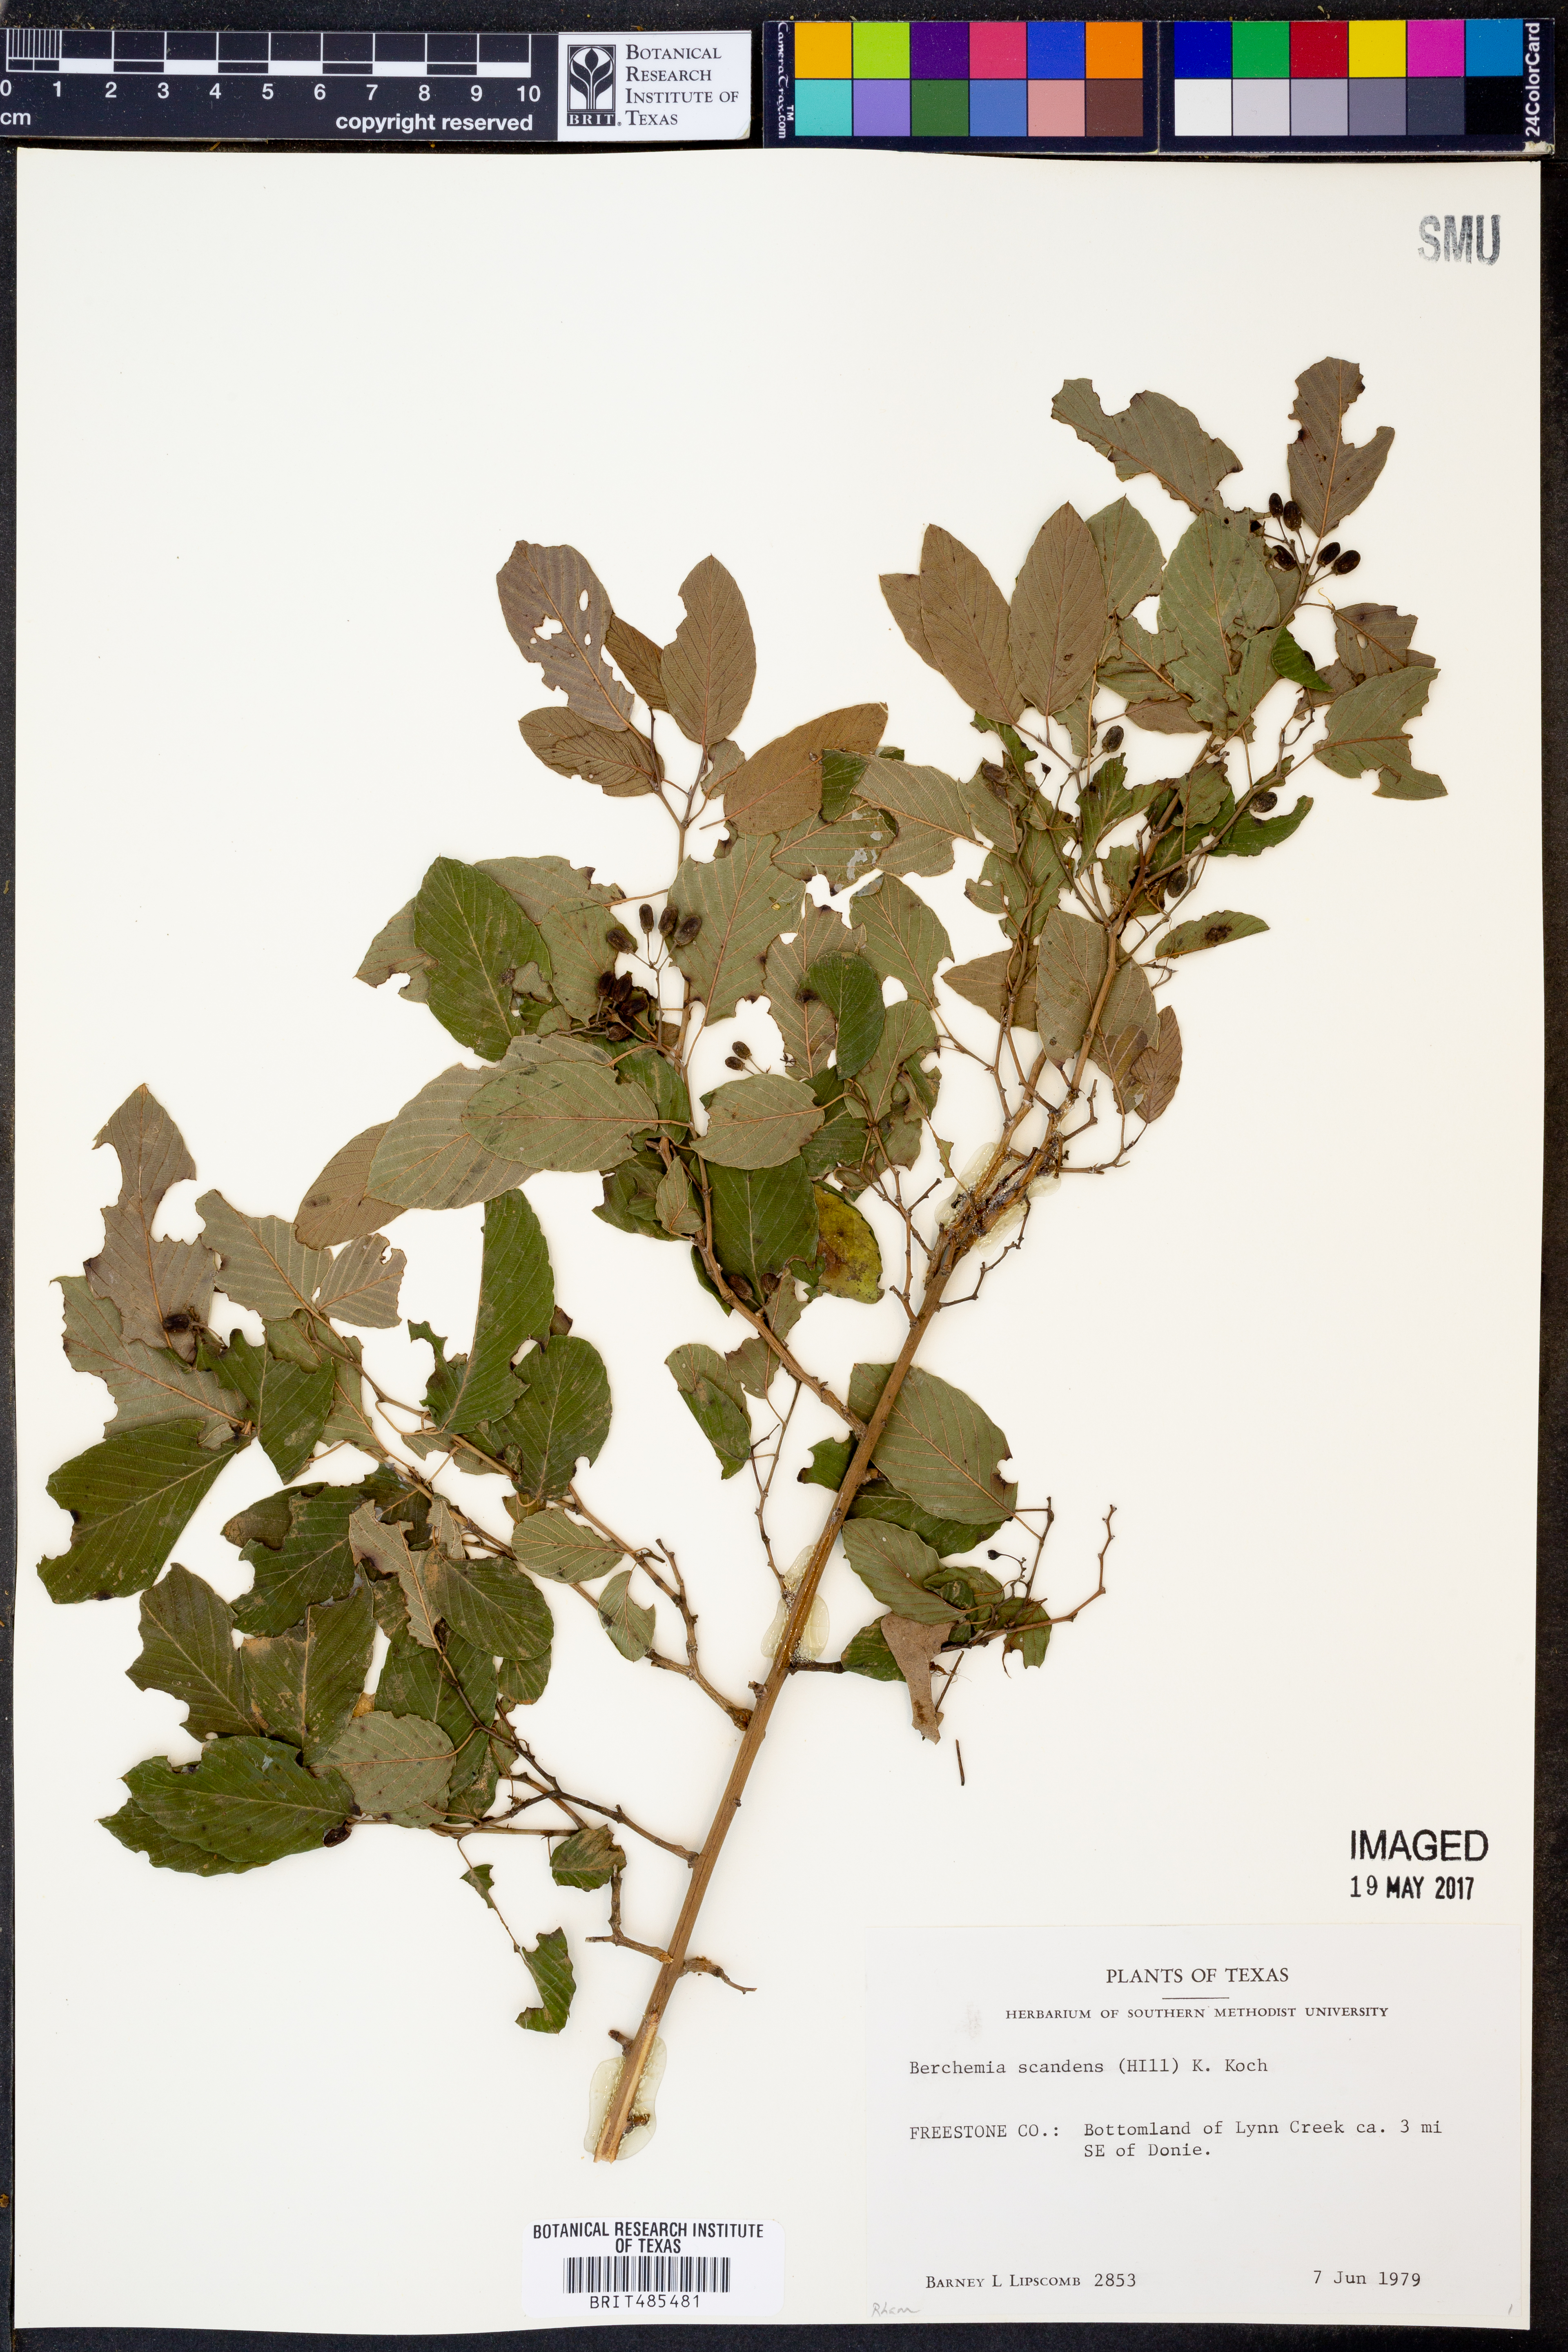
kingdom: Plantae
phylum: Tracheophyta
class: Magnoliopsida
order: Rosales
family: Rhamnaceae
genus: Berchemia
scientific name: Berchemia scandens
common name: Supplejack
